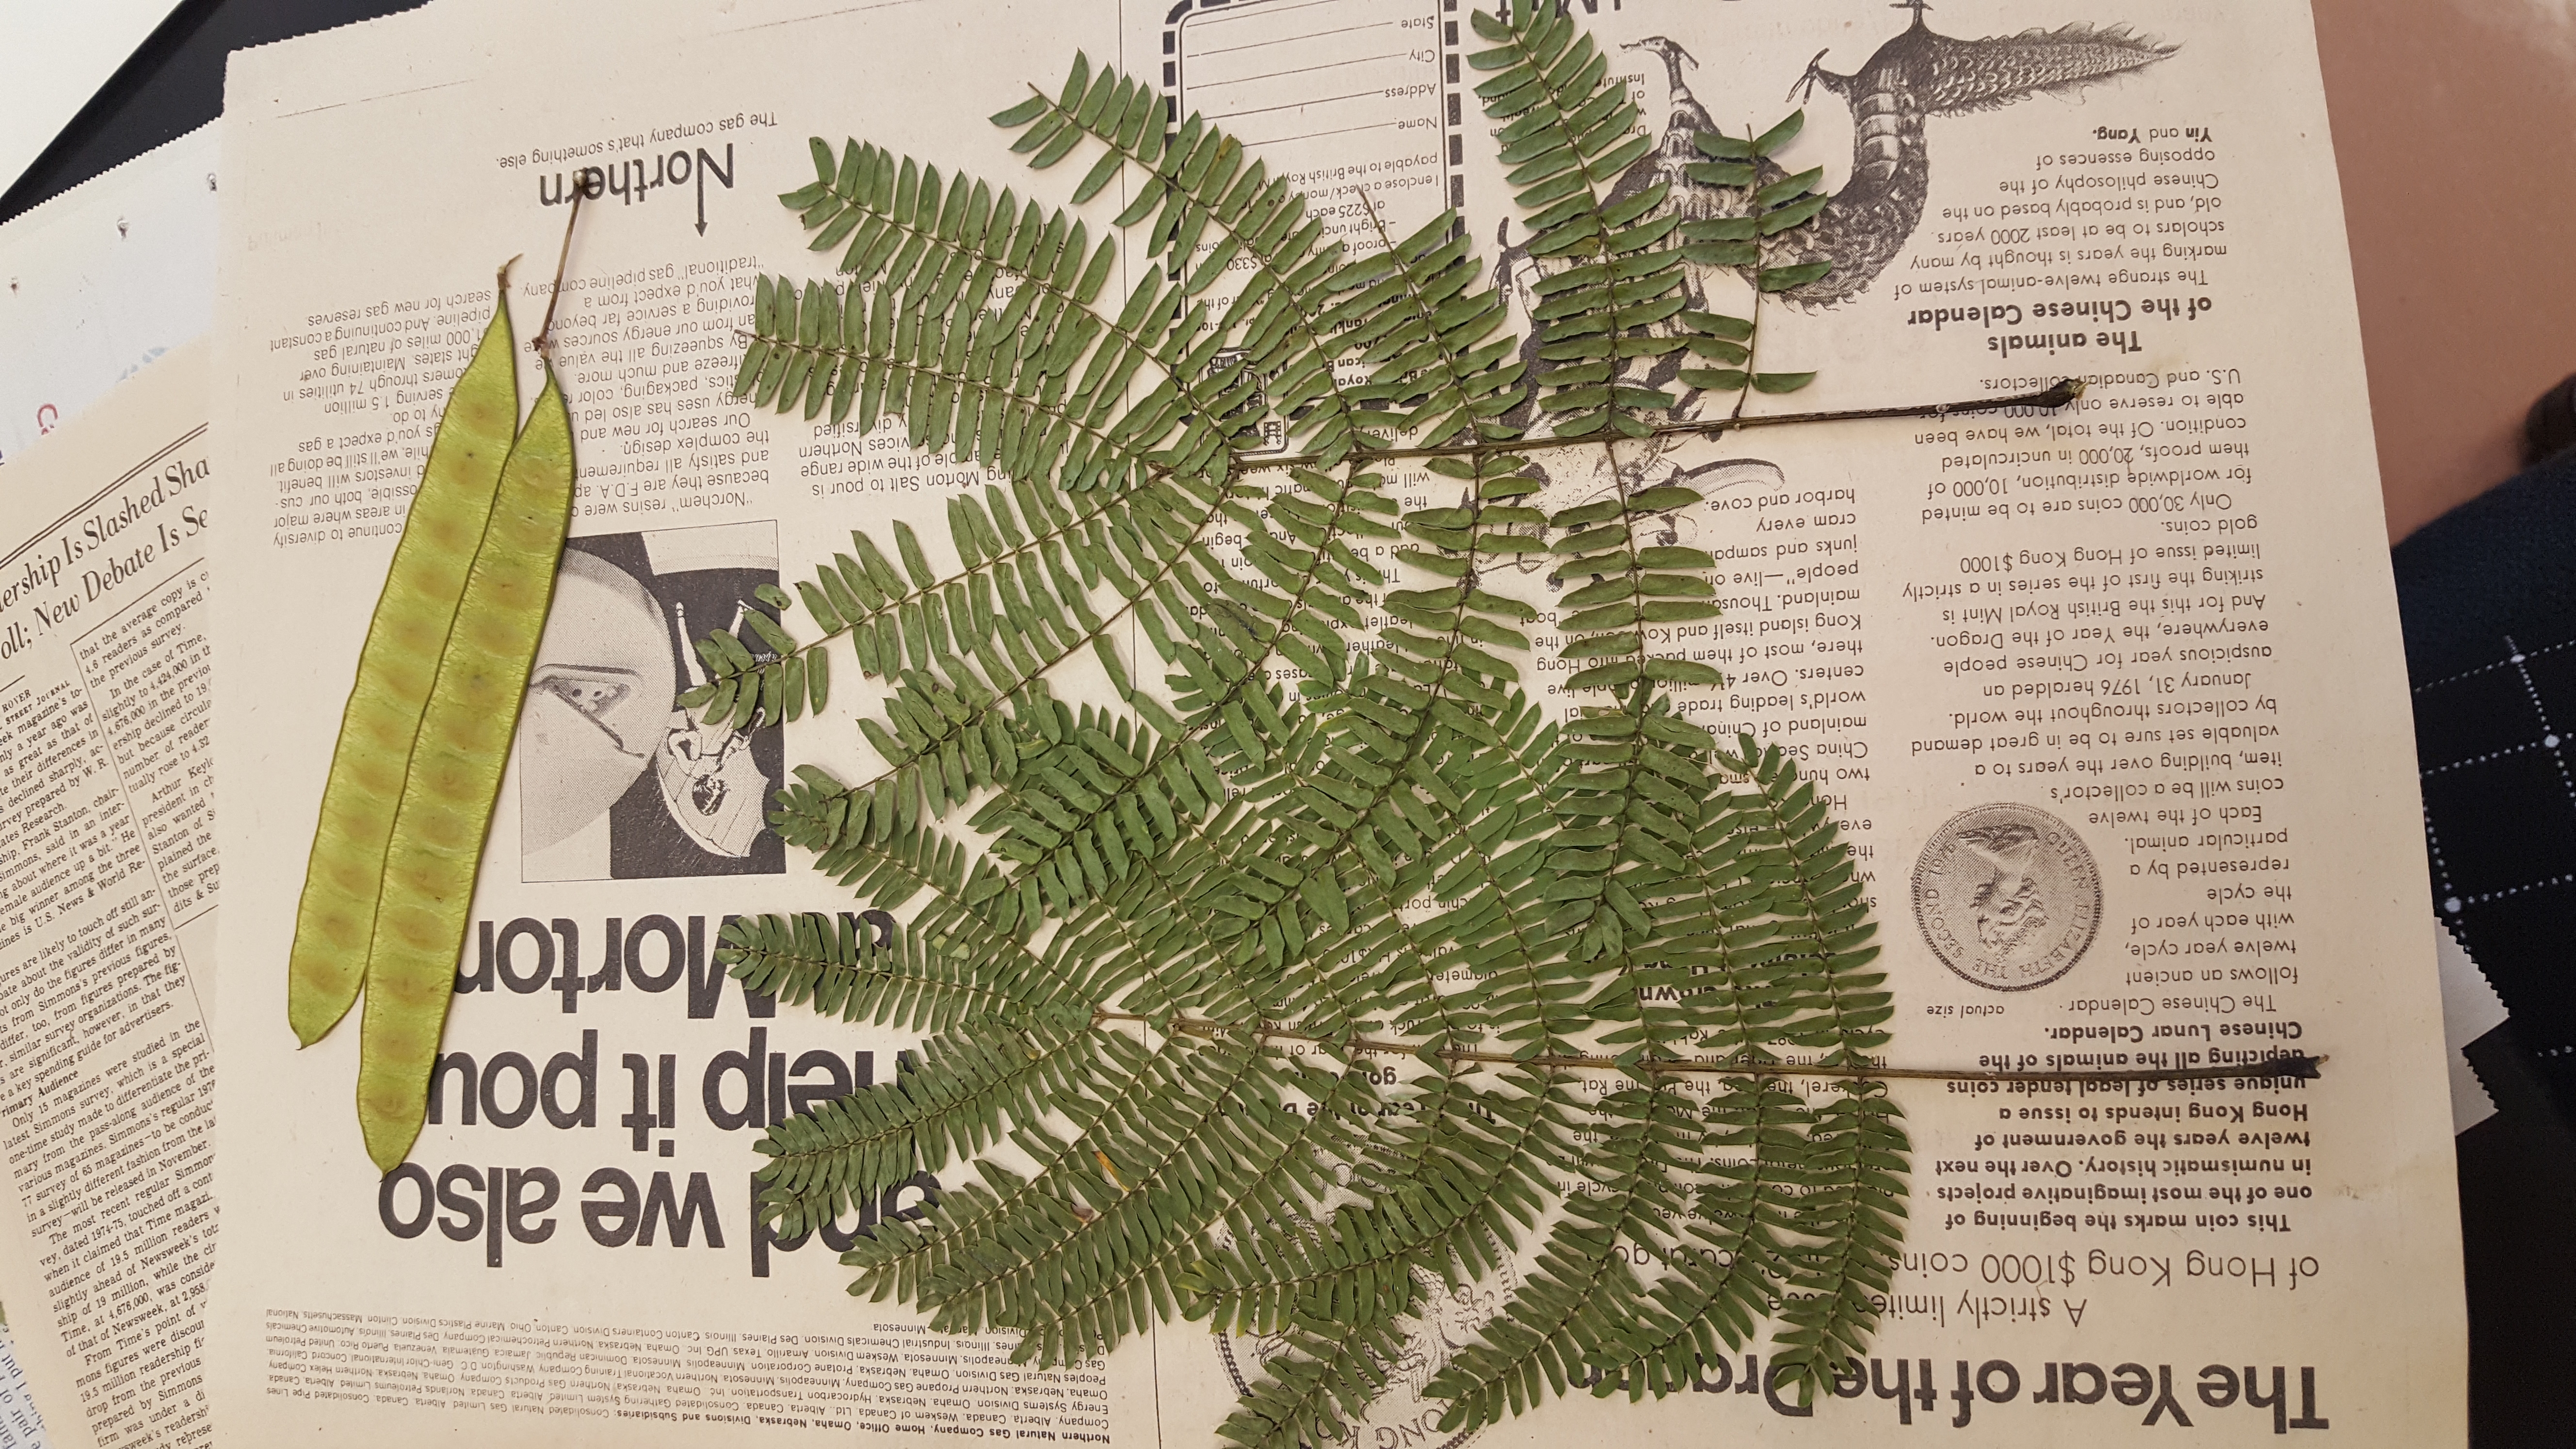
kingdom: Plantae
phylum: Tracheophyta
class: Magnoliopsida
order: Fabales
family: Fabaceae
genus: Albizia
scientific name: Albizia julibrissin
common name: Mimosa
